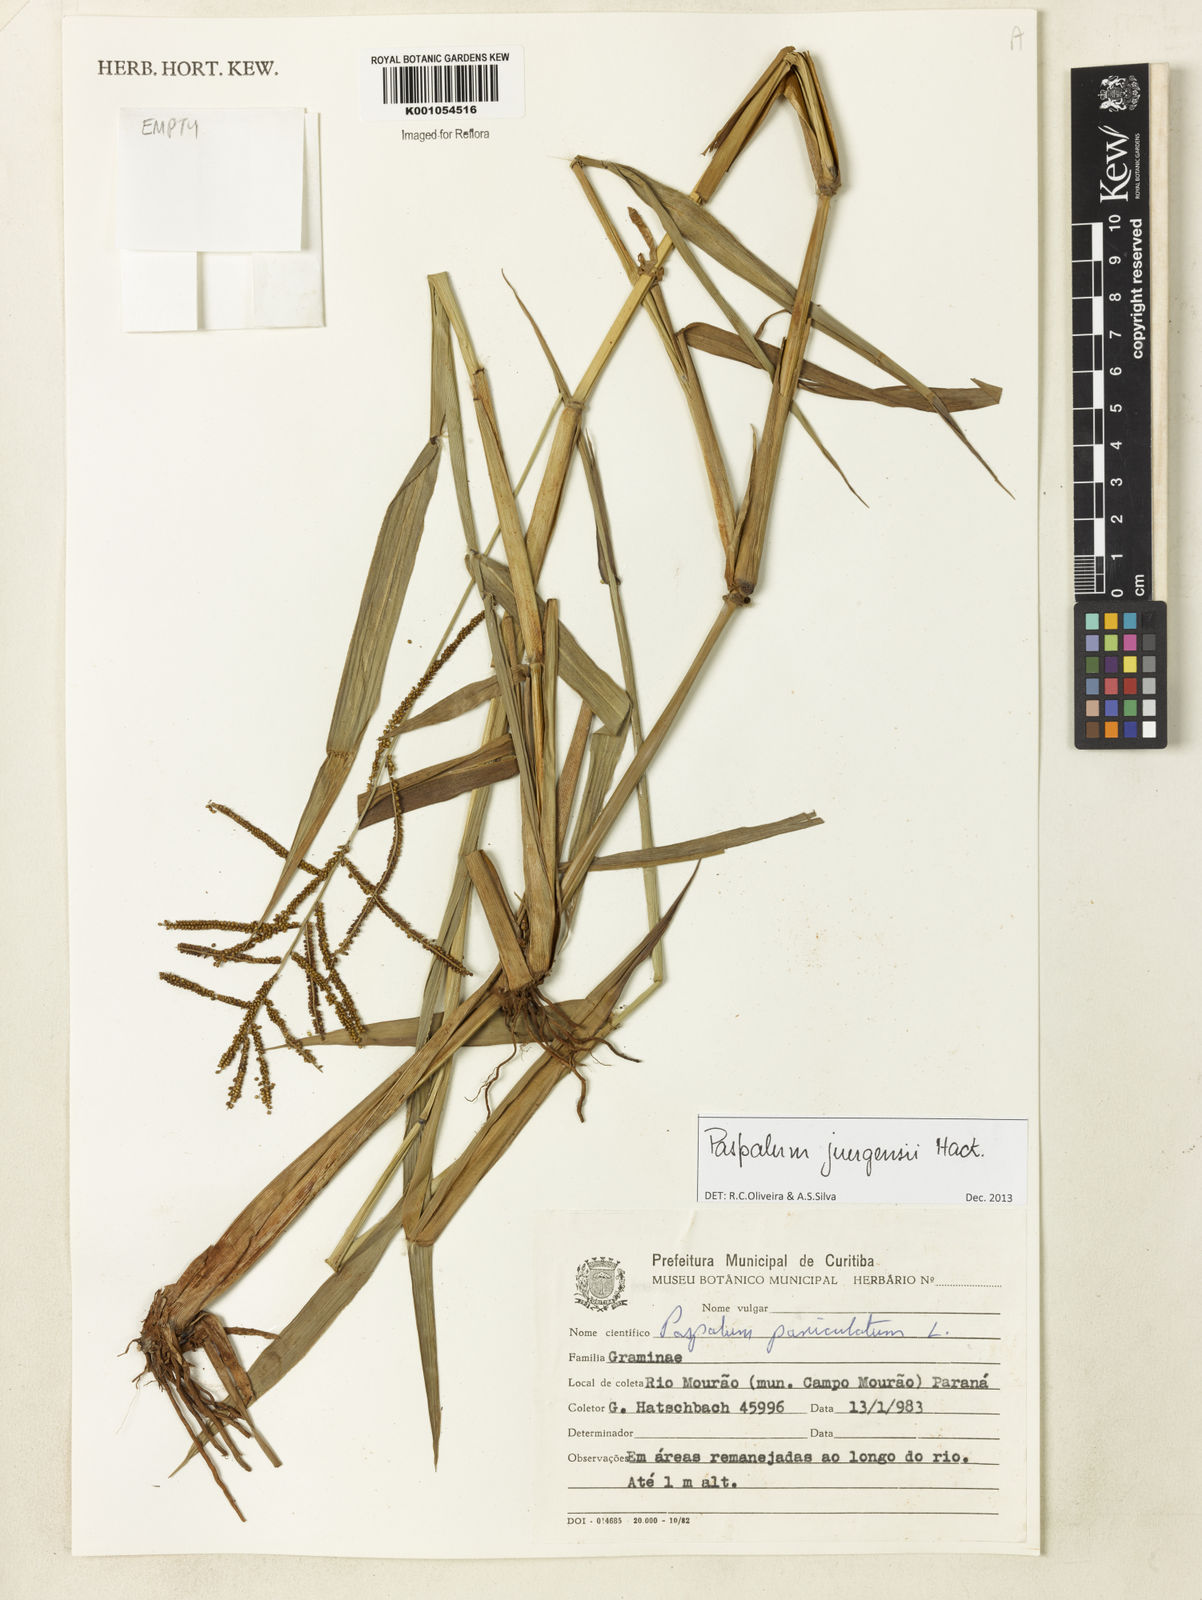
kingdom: Plantae
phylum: Tracheophyta
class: Liliopsida
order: Poales
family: Poaceae
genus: Paspalum
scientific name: Paspalum juergensii
